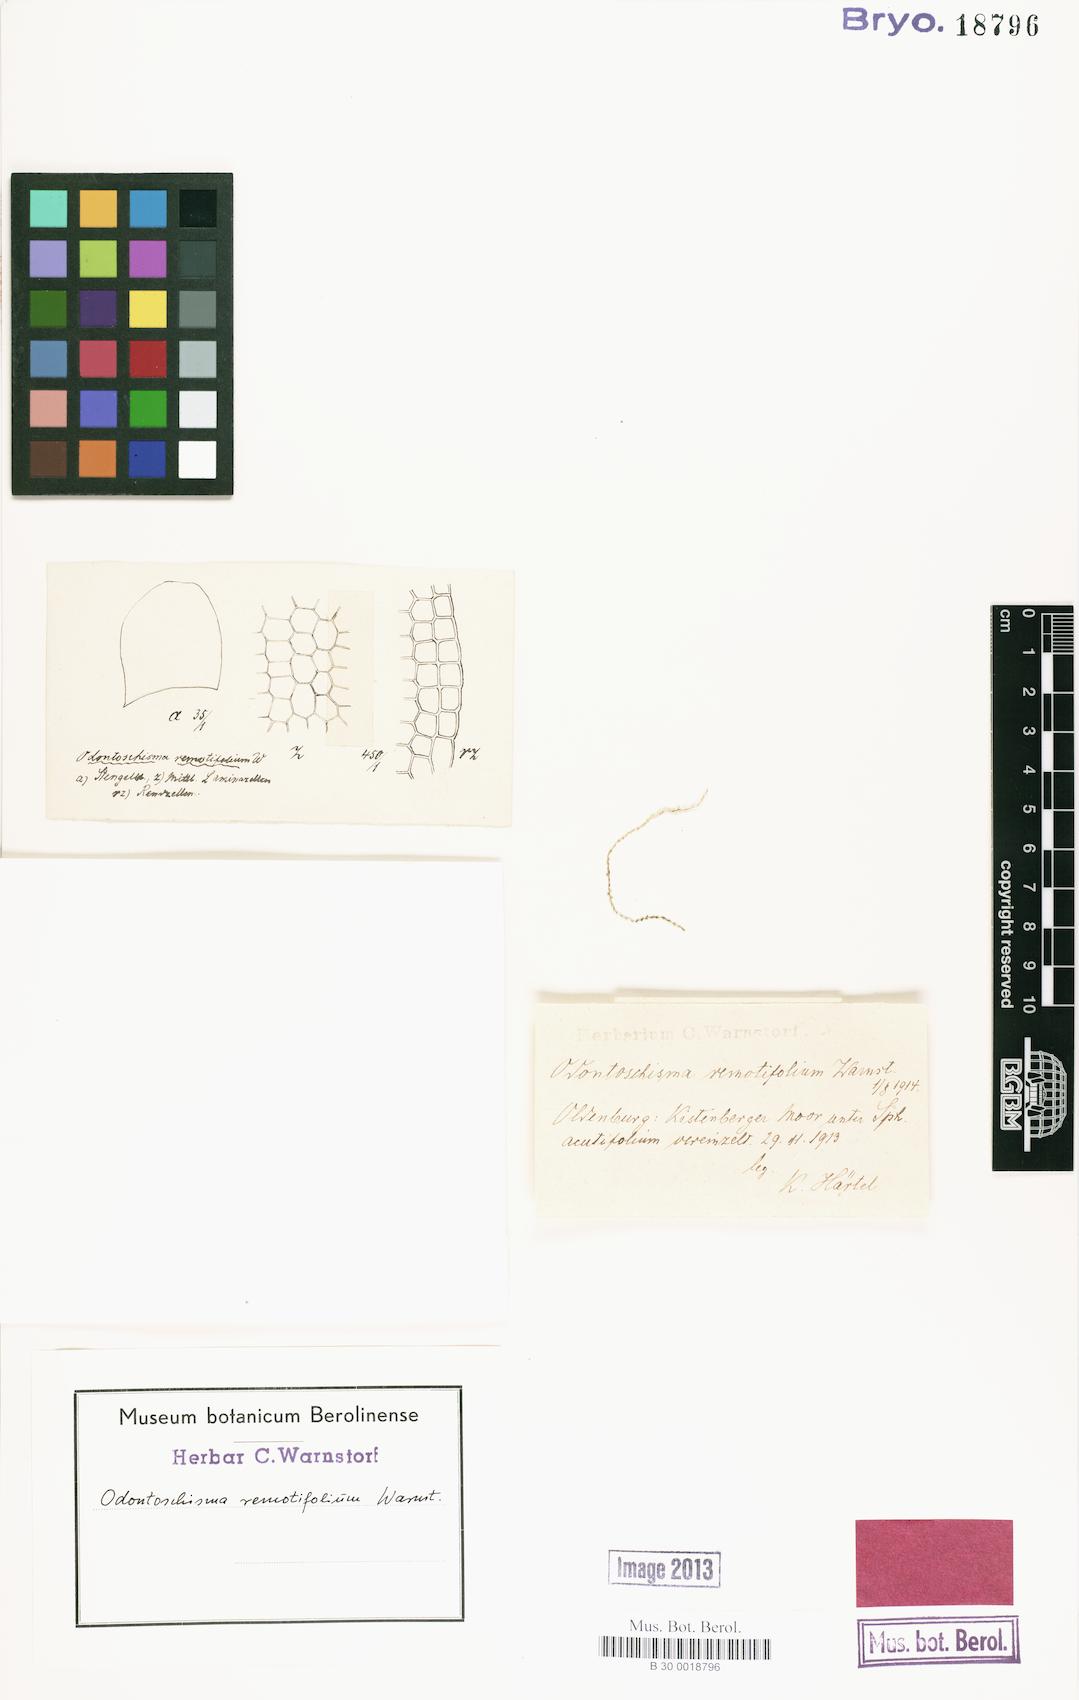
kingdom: Plantae
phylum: Marchantiophyta
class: Jungermanniopsida
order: Jungermanniales
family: Cephaloziaceae
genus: Odontoschisma
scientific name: Odontoschisma sphagni
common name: Bog-moss flapwort
